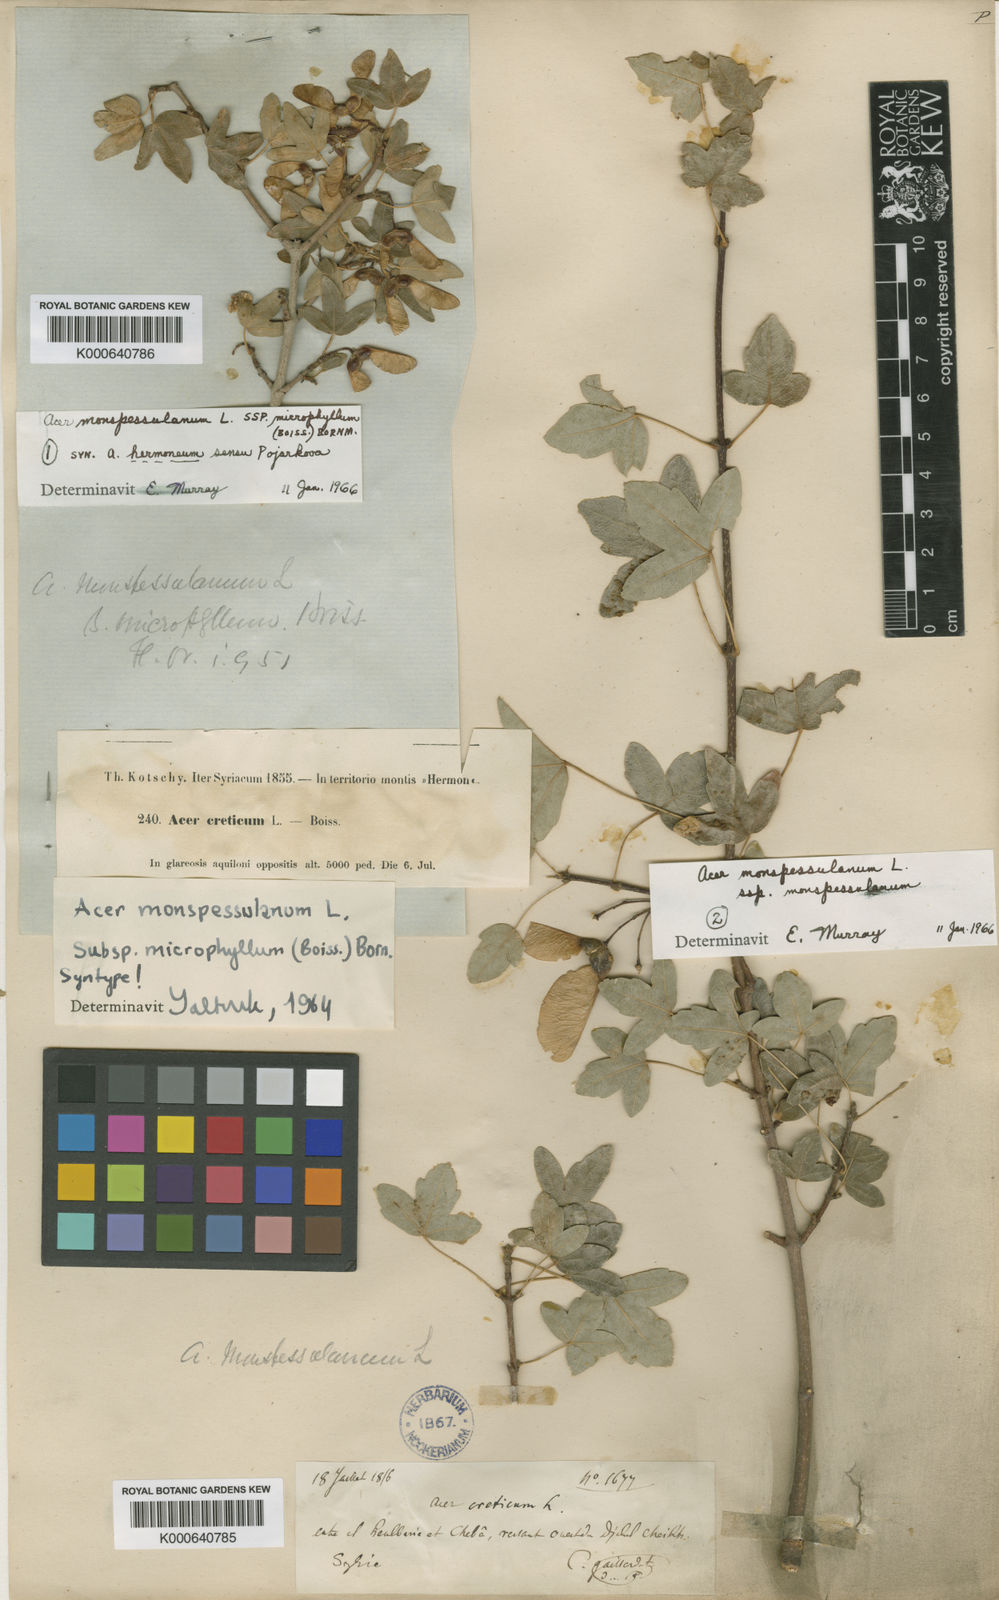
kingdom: Plantae
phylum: Tracheophyta
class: Magnoliopsida
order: Sapindales
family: Sapindaceae
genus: Acer
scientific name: Acer monspessulanum
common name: Montpellier maple
